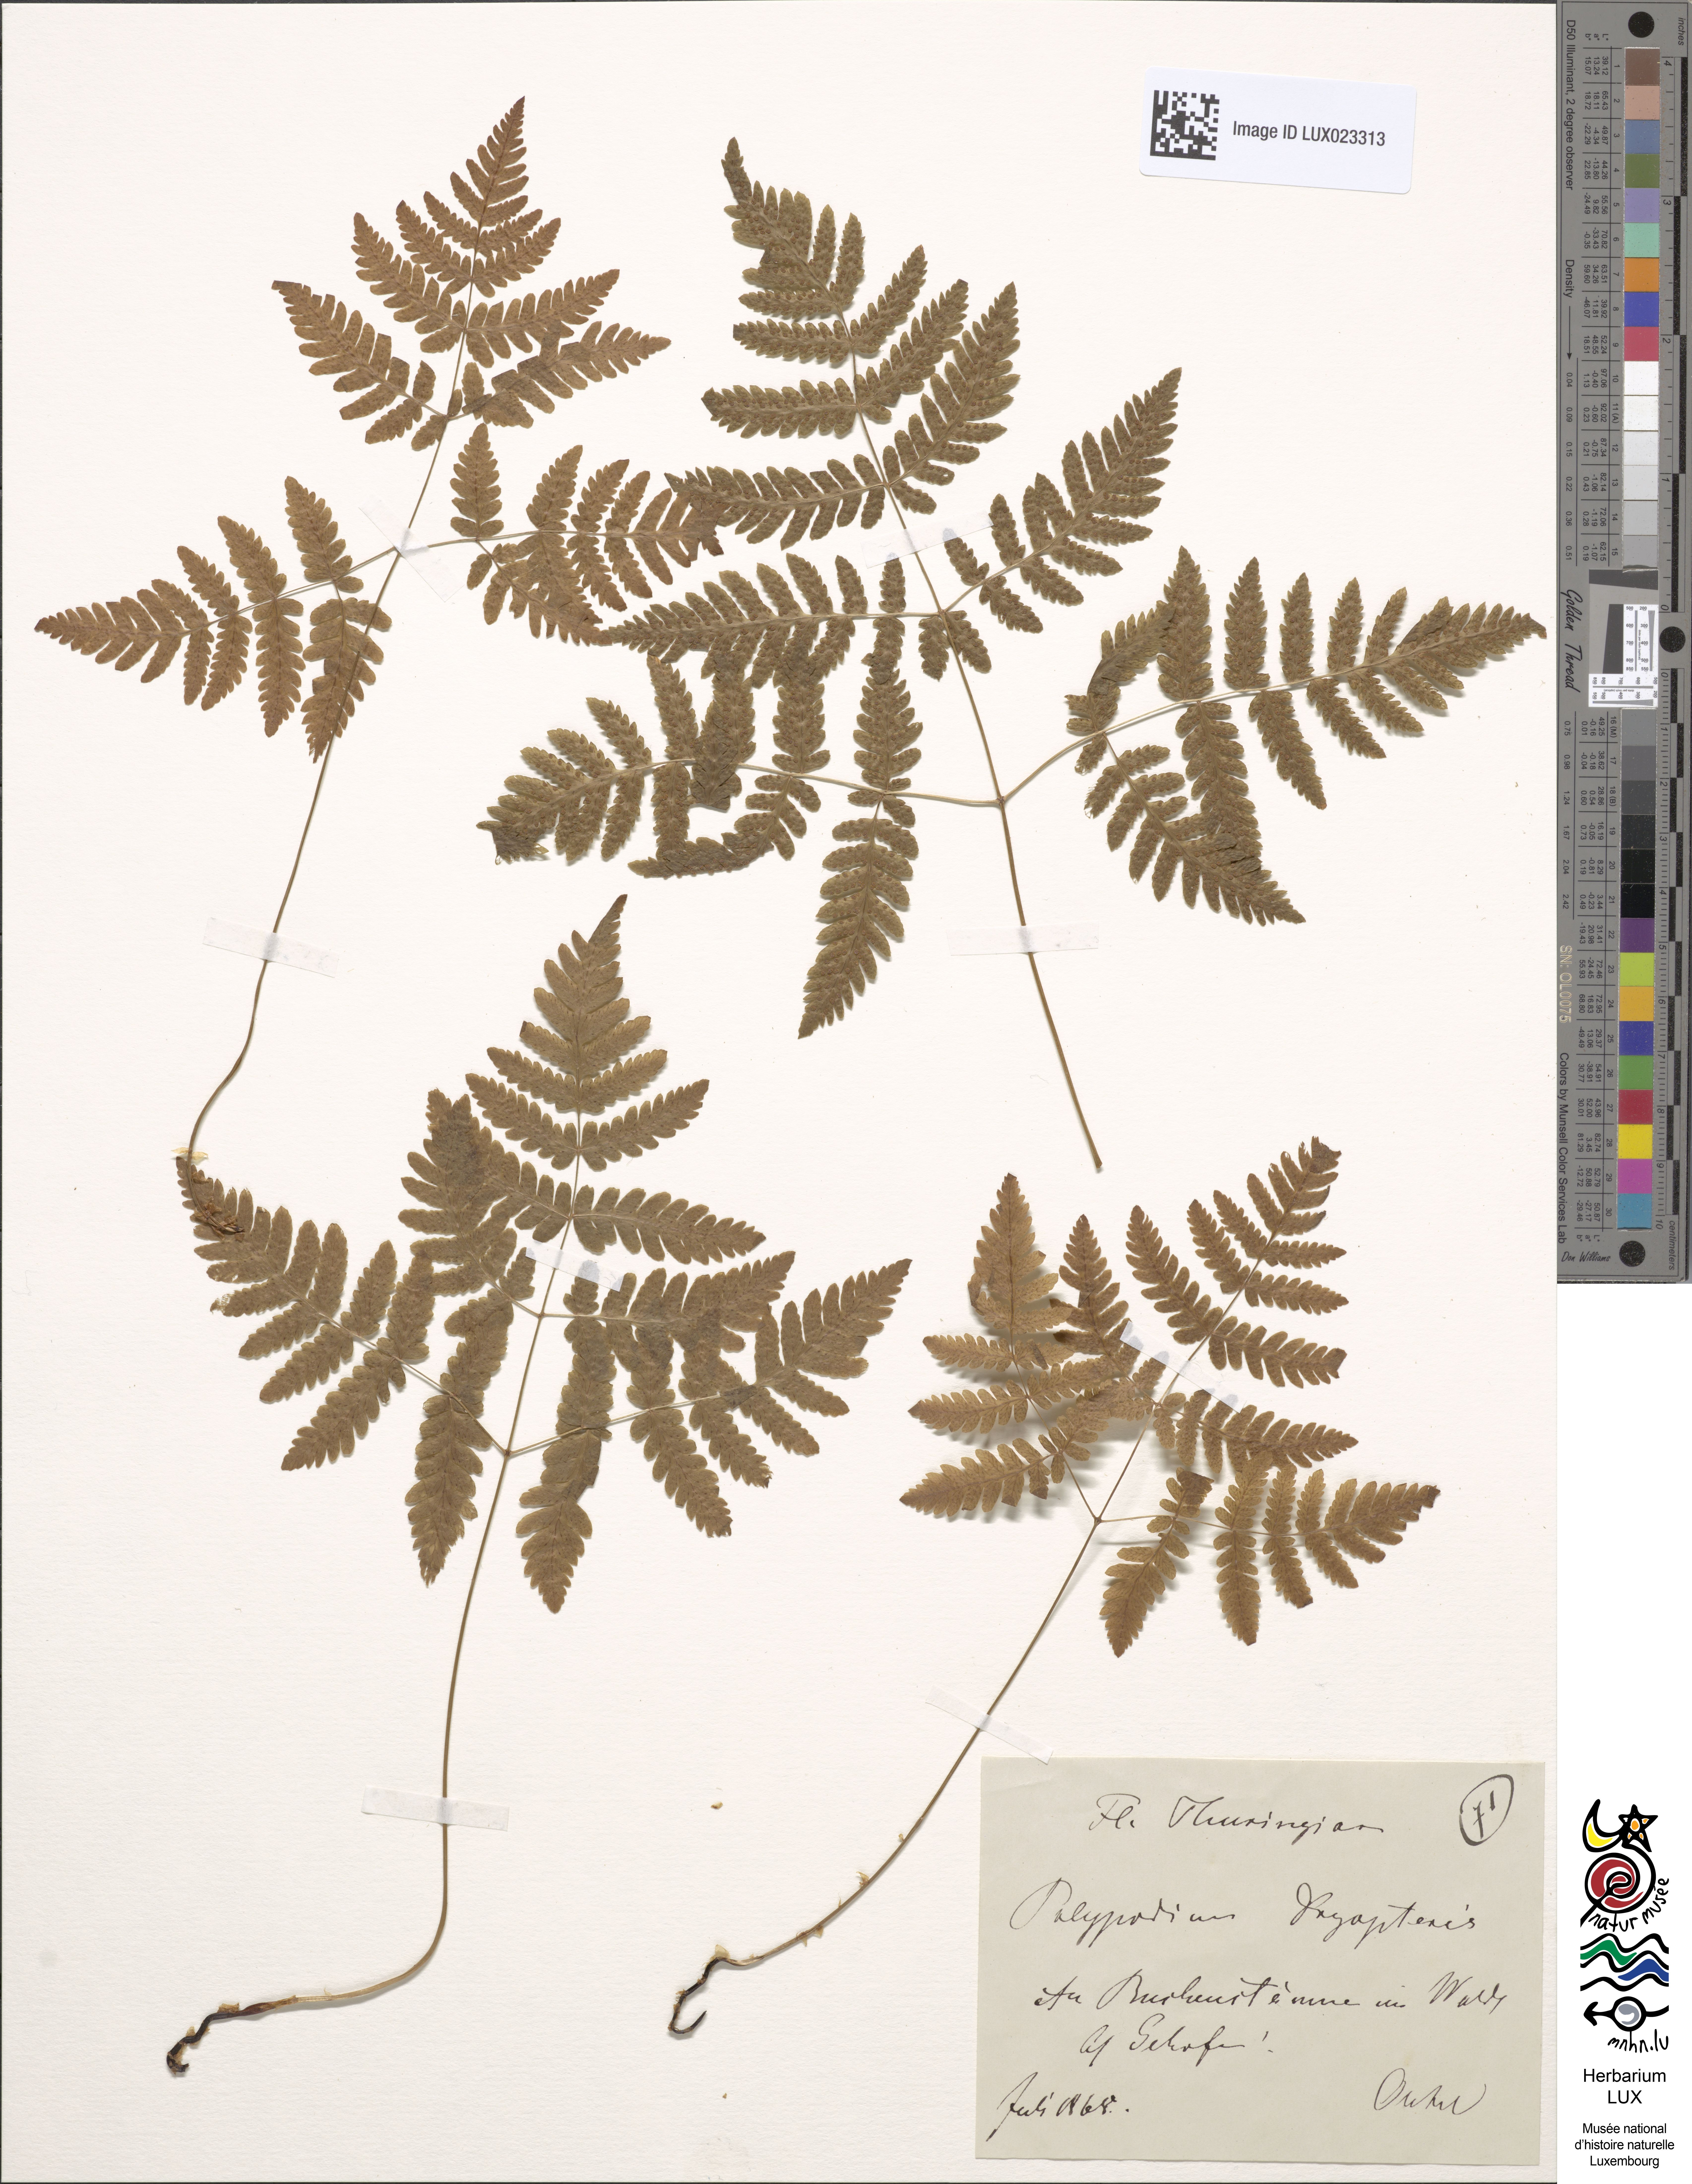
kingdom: Plantae
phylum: Tracheophyta
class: Polypodiopsida
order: Polypodiales
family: Cystopteridaceae
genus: Gymnocarpium
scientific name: Gymnocarpium dryopteris
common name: Oak fern
